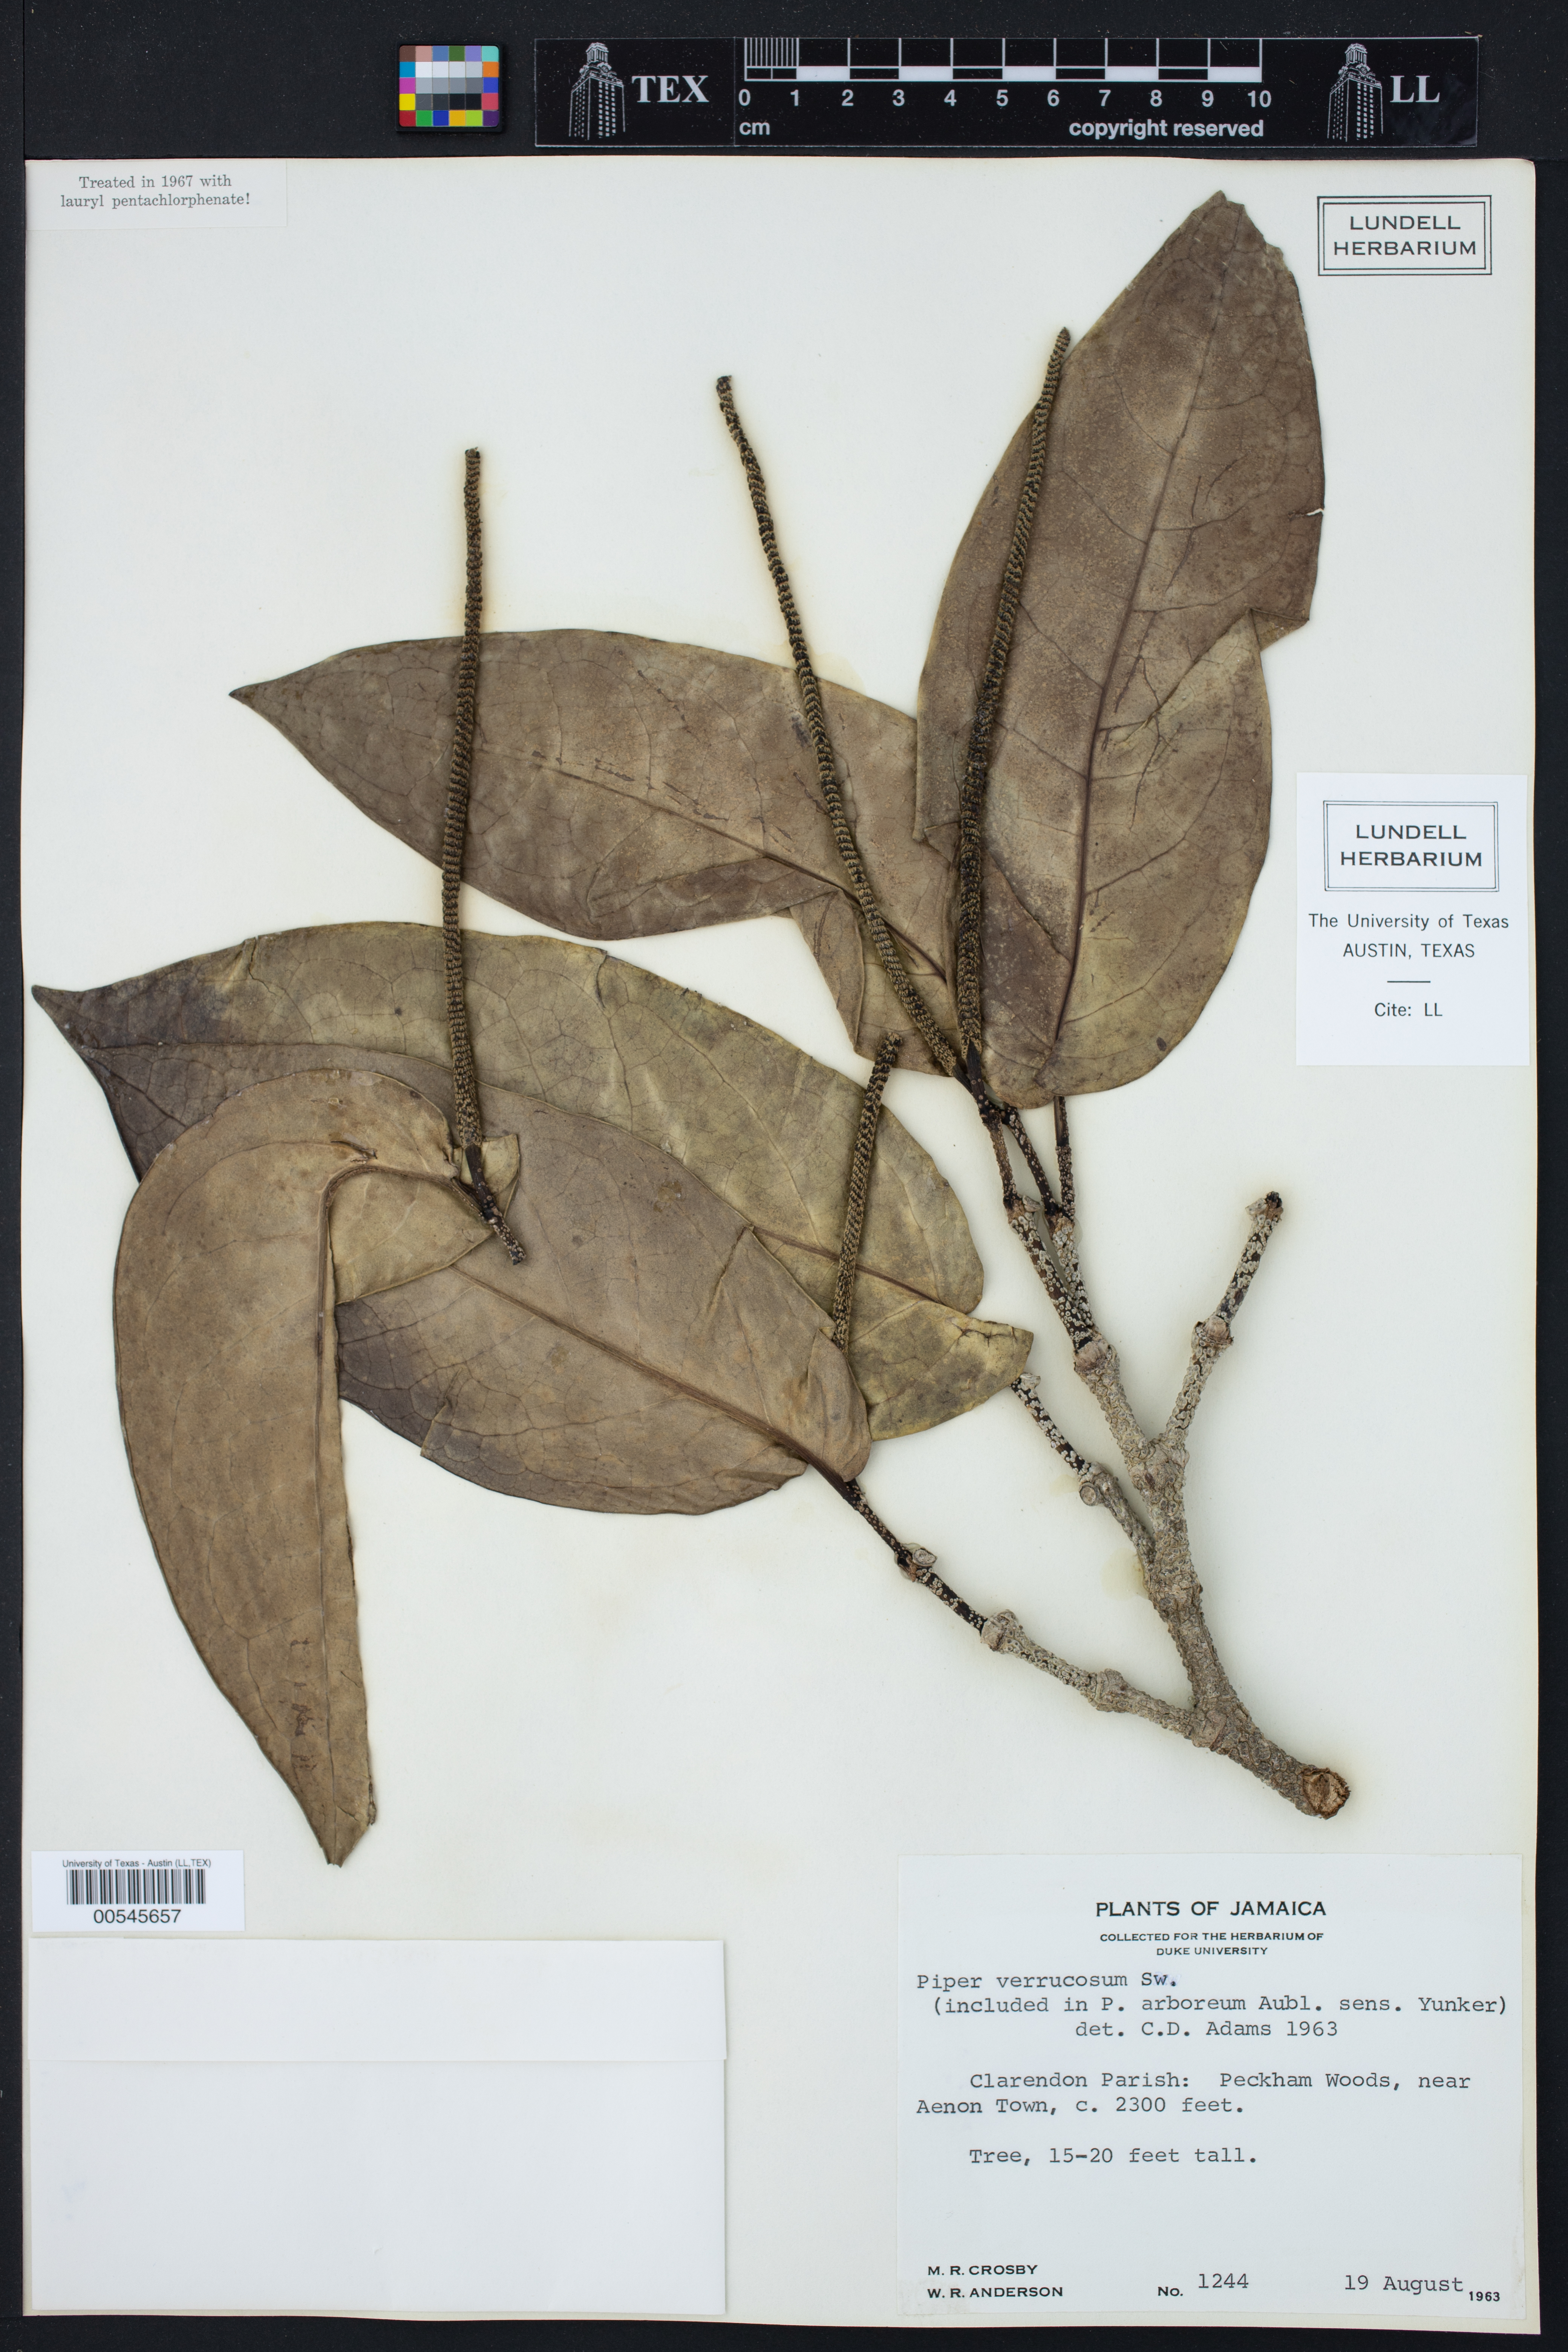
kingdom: Plantae
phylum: Tracheophyta
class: Magnoliopsida
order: Piperales
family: Piperaceae
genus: Piper
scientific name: Piper arboreum
